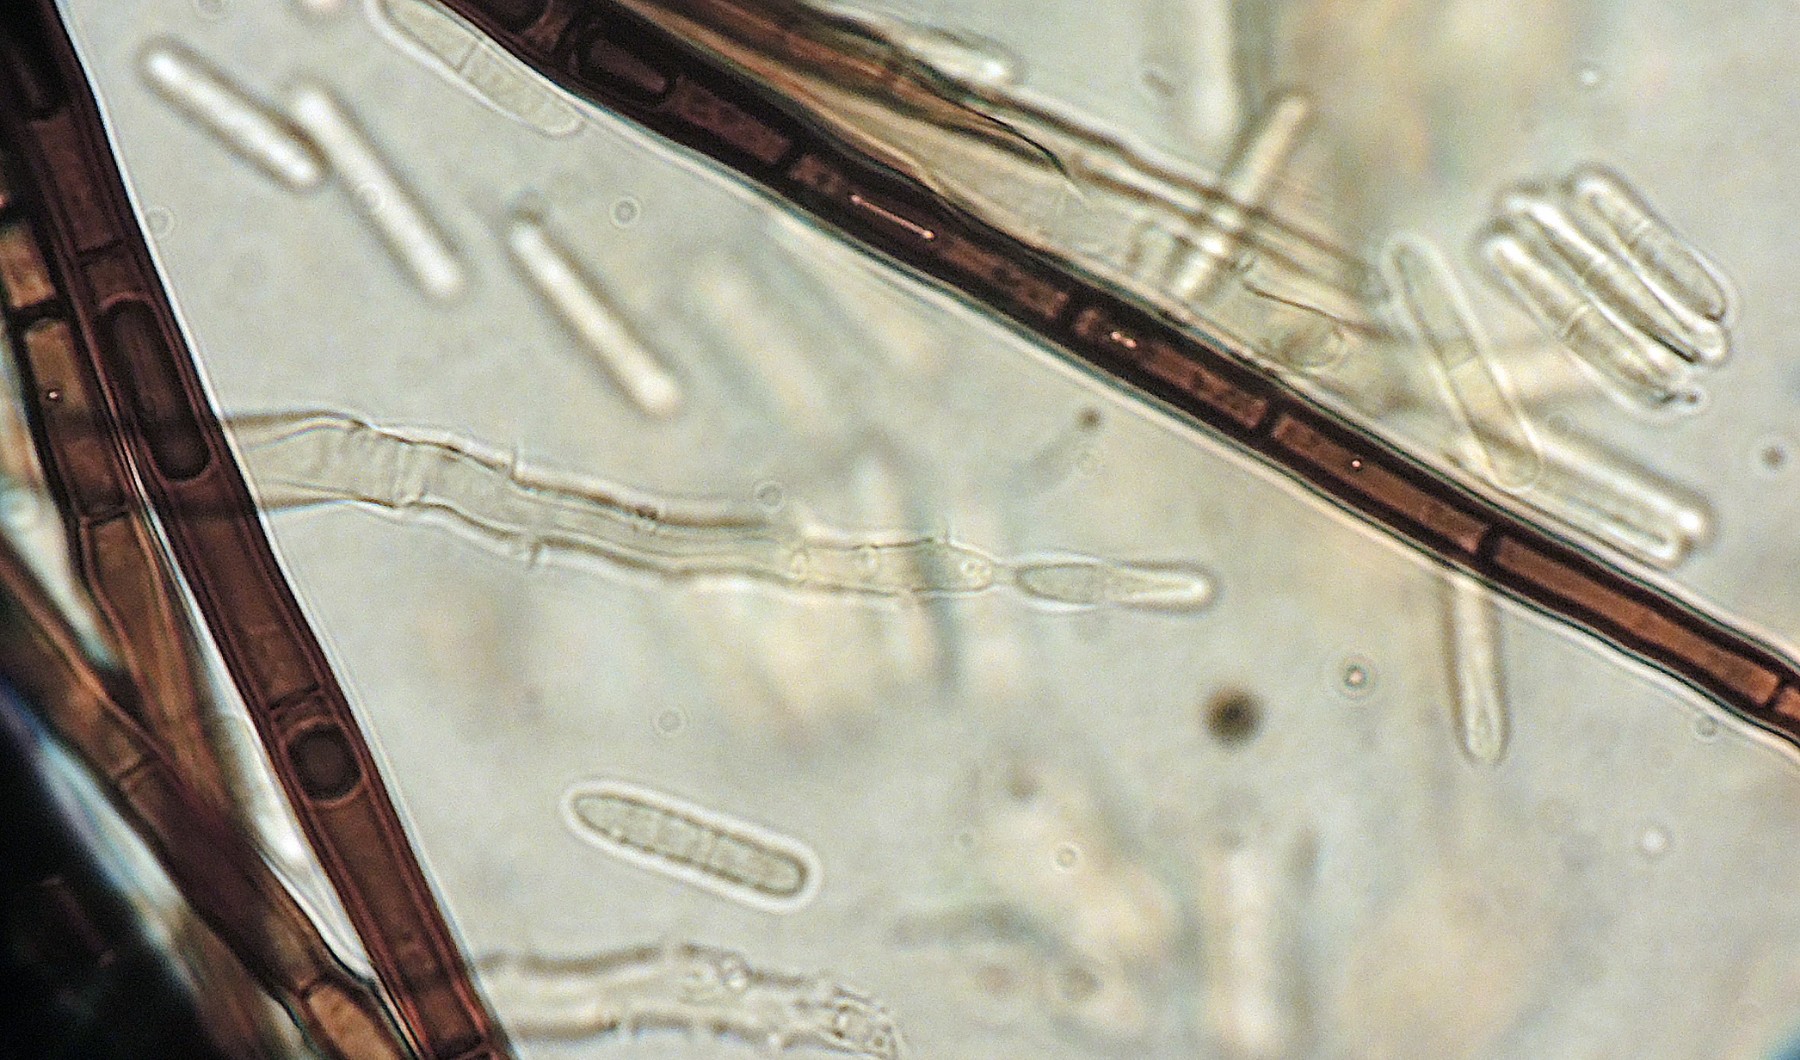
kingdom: Fungi
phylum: Ascomycota
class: Sordariomycetes
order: Chaetosphaeriales
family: Chaetosphaeriaceae
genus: Cylindrotrichum
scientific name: Cylindrotrichum oligospermum
